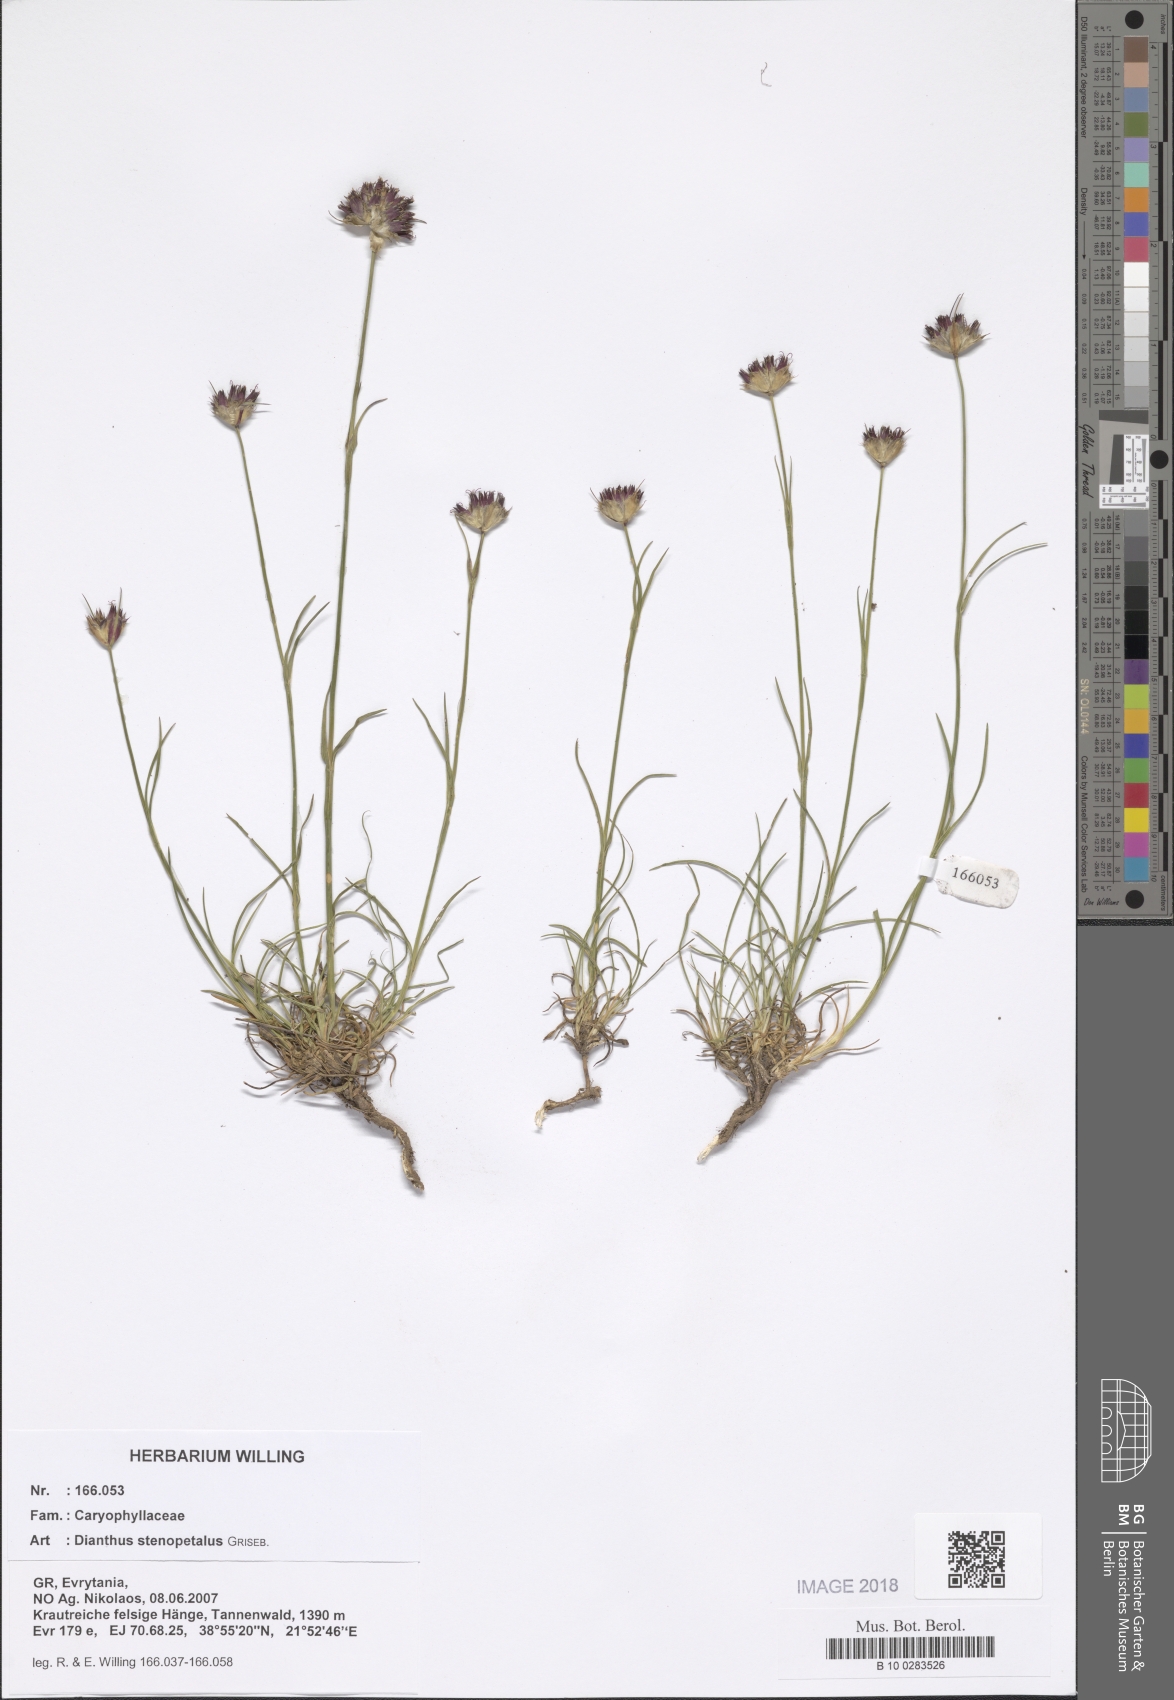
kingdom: Plantae
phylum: Tracheophyta
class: Magnoliopsida
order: Caryophyllales
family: Caryophyllaceae
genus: Dianthus
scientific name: Dianthus stenopetalus
